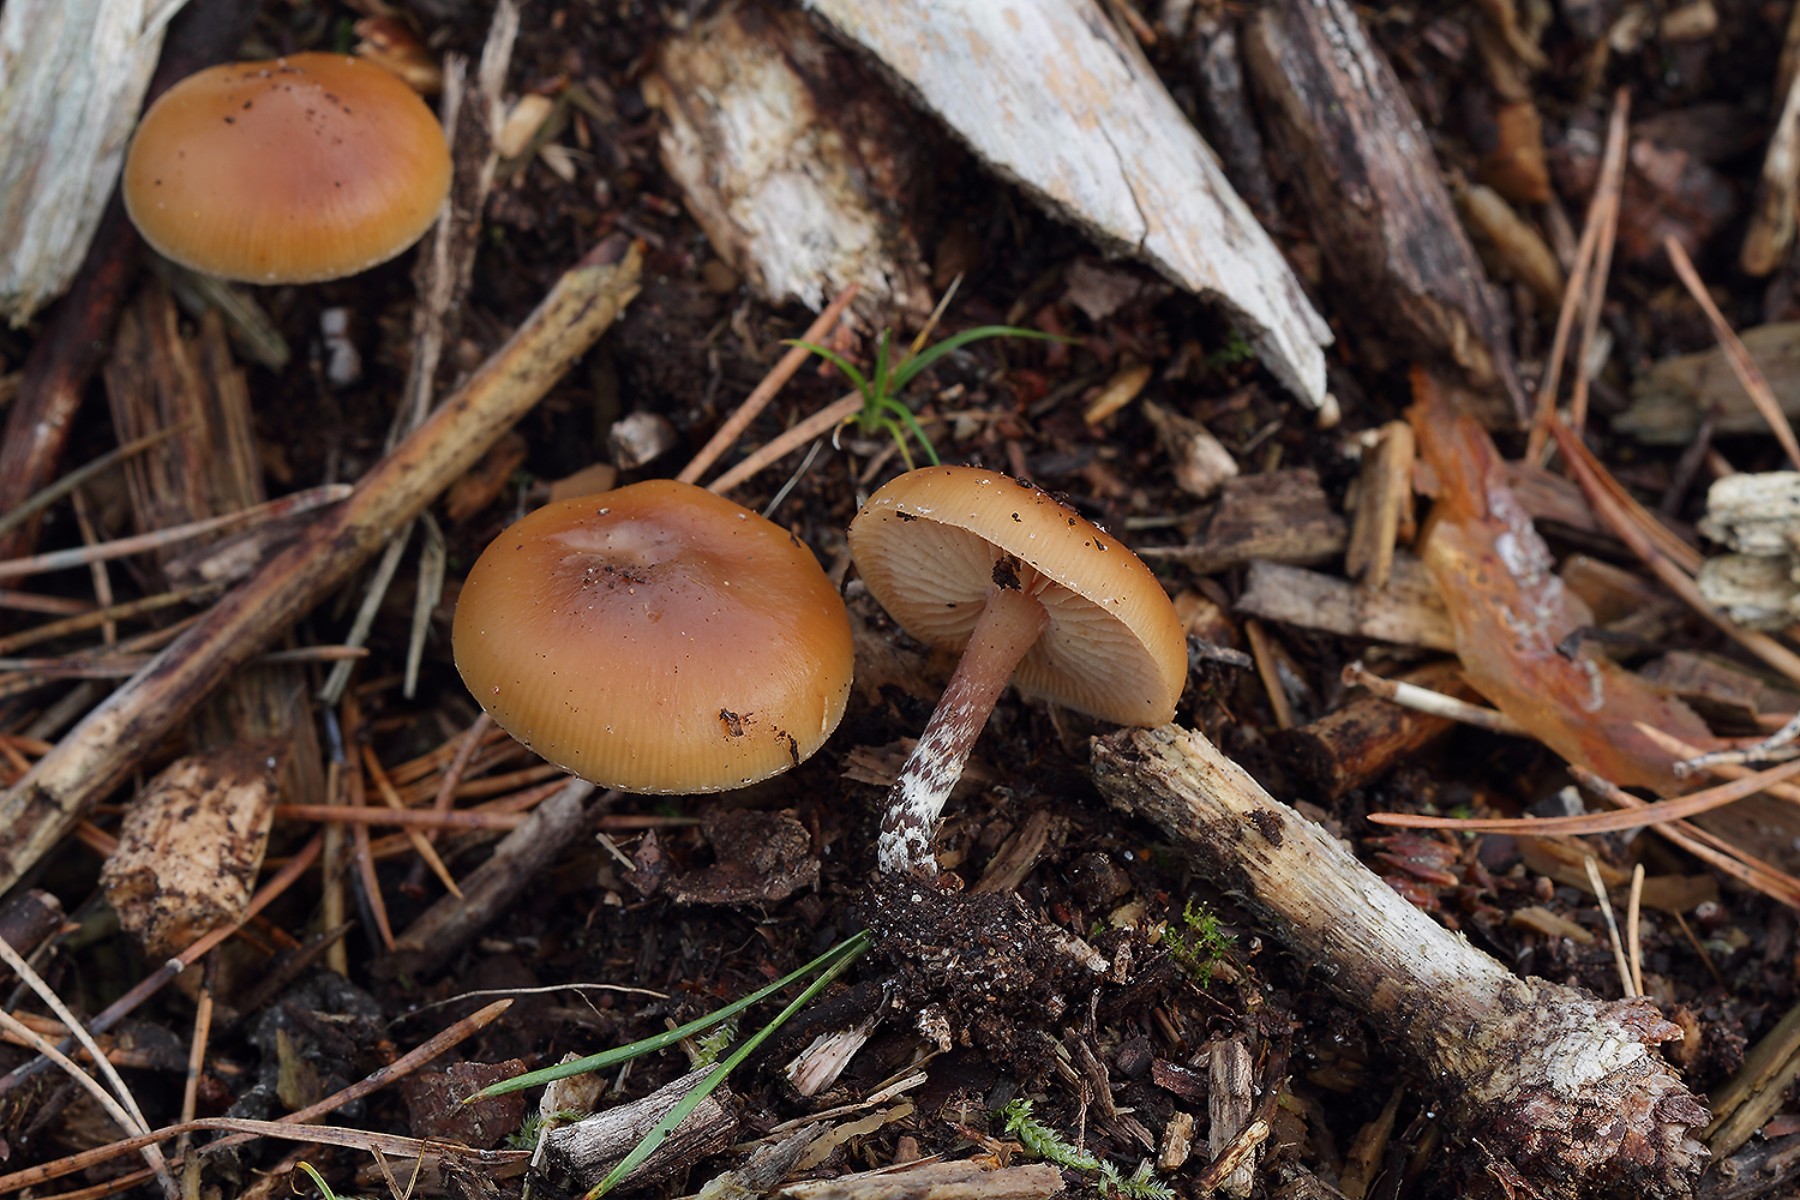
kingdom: Fungi
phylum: Basidiomycota
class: Agaricomycetes
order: Agaricales
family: Hymenogastraceae
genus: Galerina
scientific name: Galerina sideroides
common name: træflis-hjelmhat
